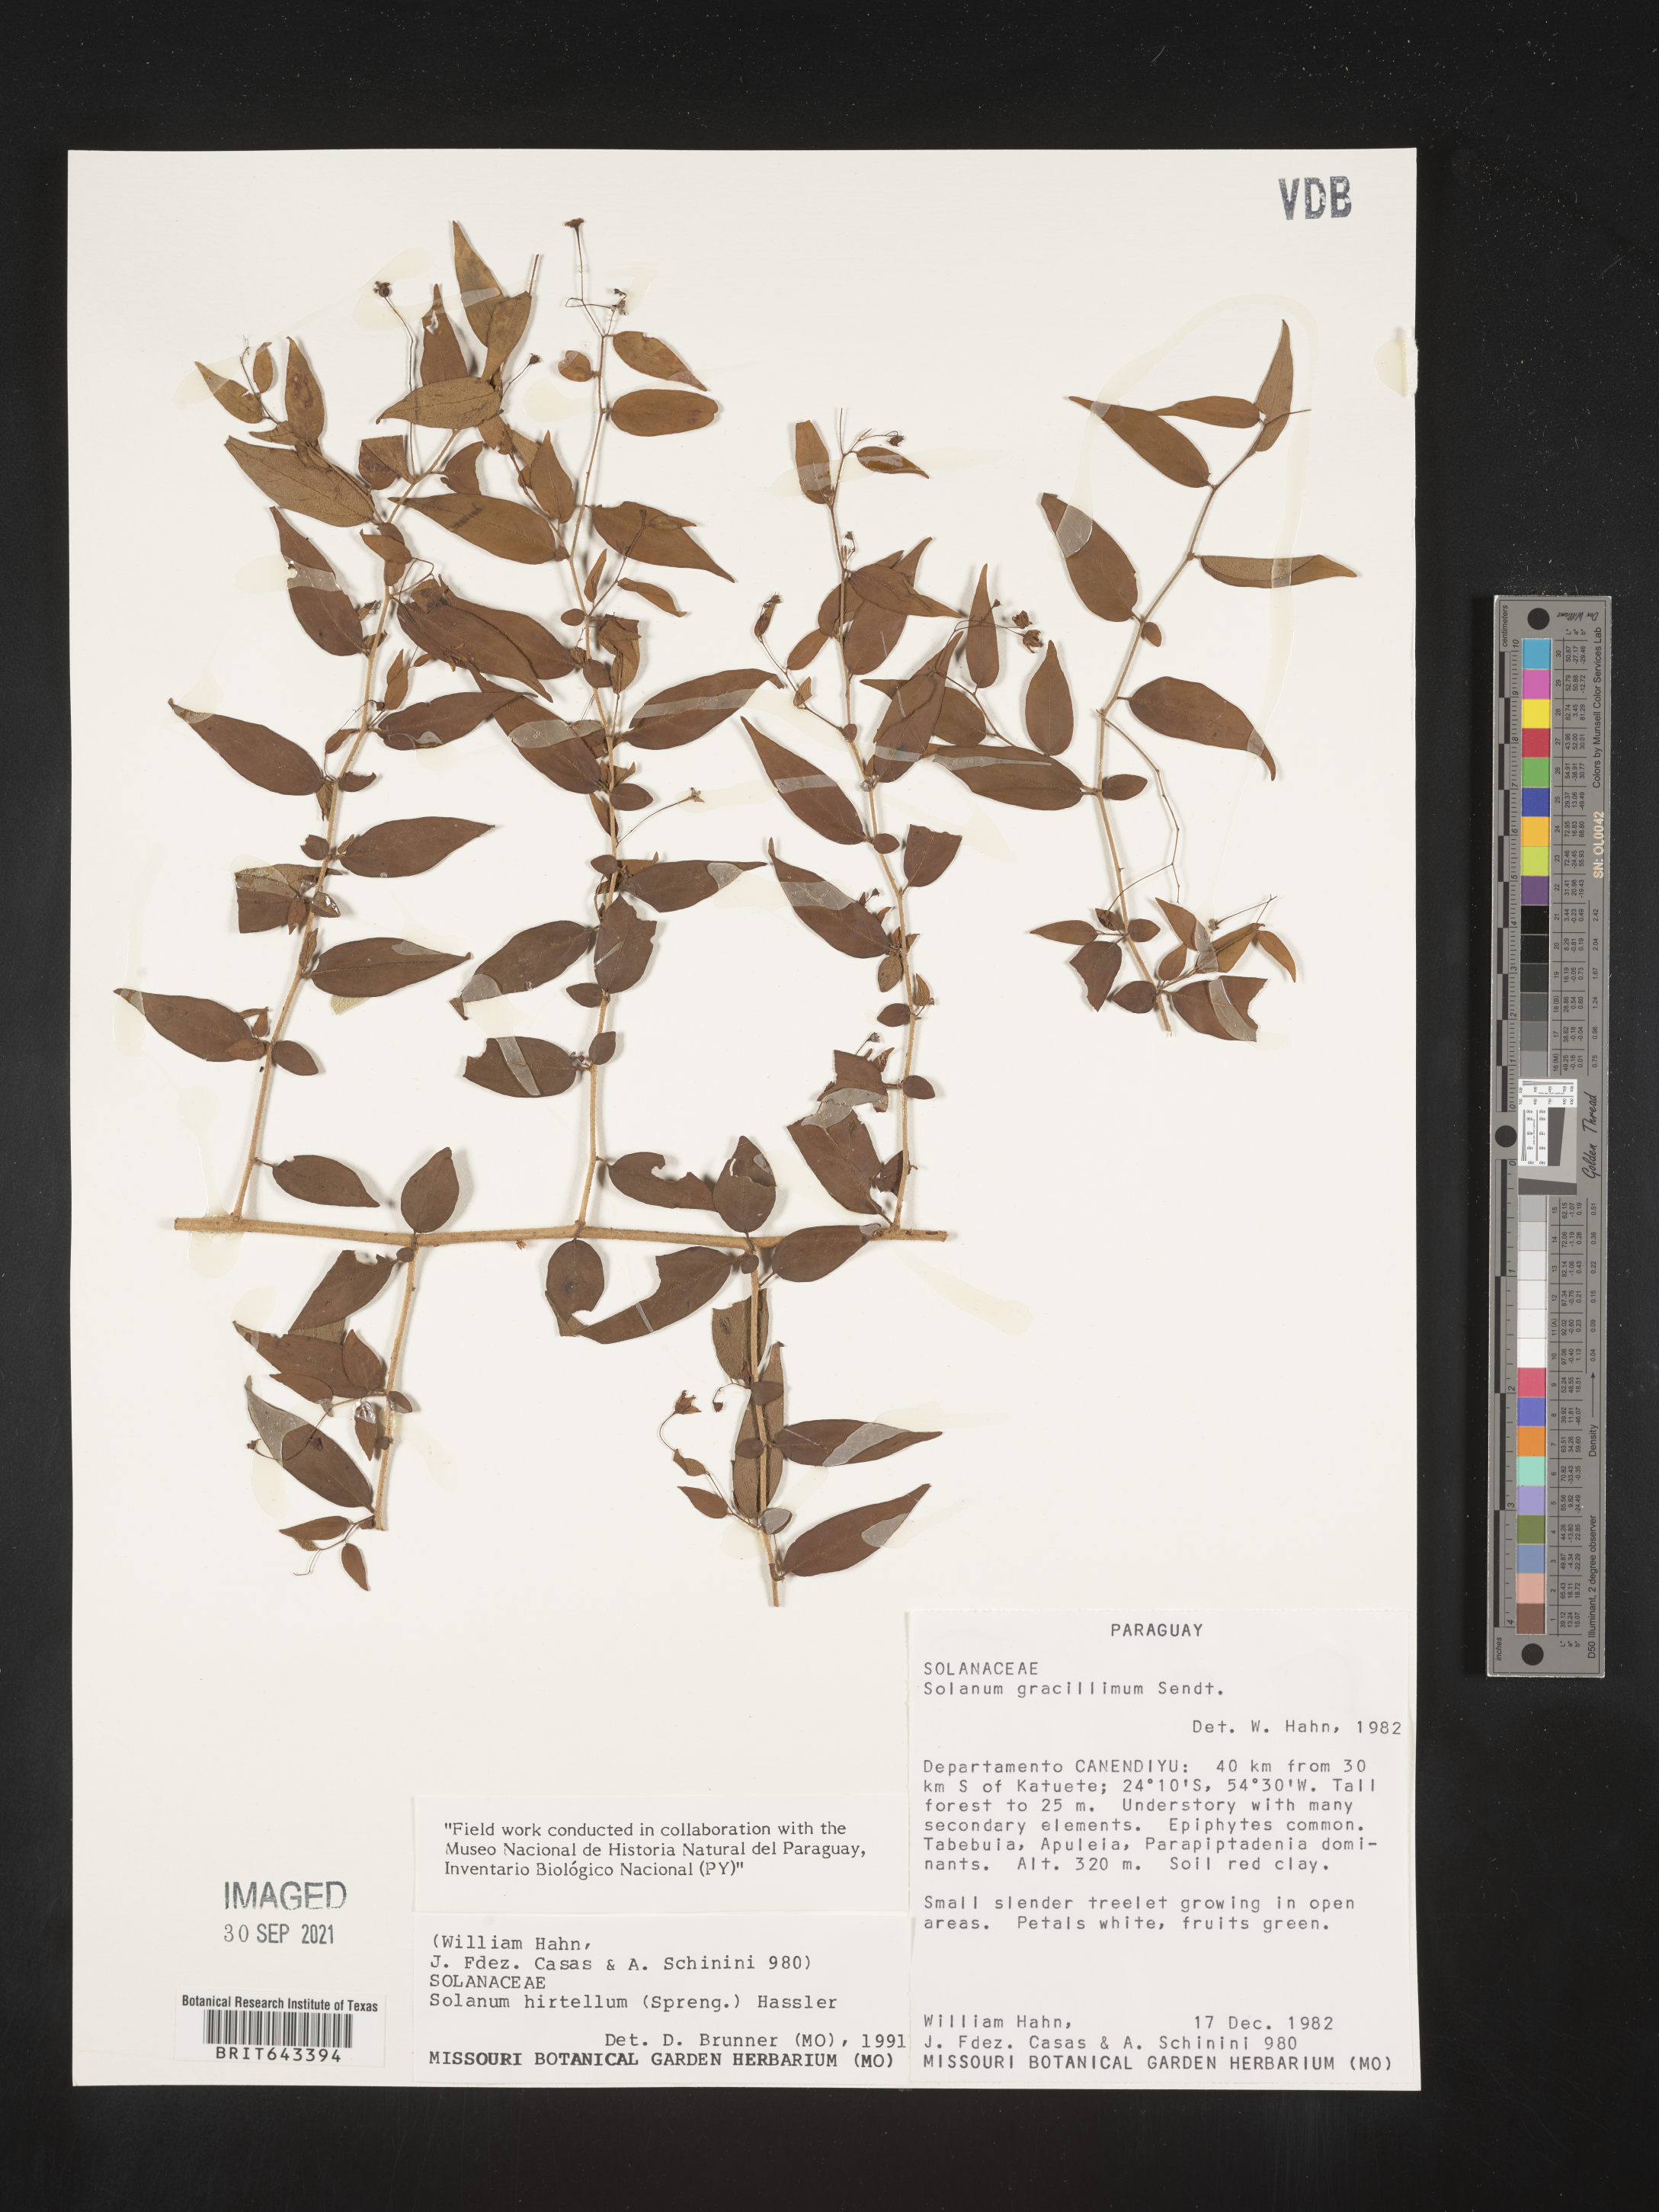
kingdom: Plantae
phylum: Tracheophyta
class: Magnoliopsida
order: Solanales
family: Solanaceae
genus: Solanum
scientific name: Solanum
